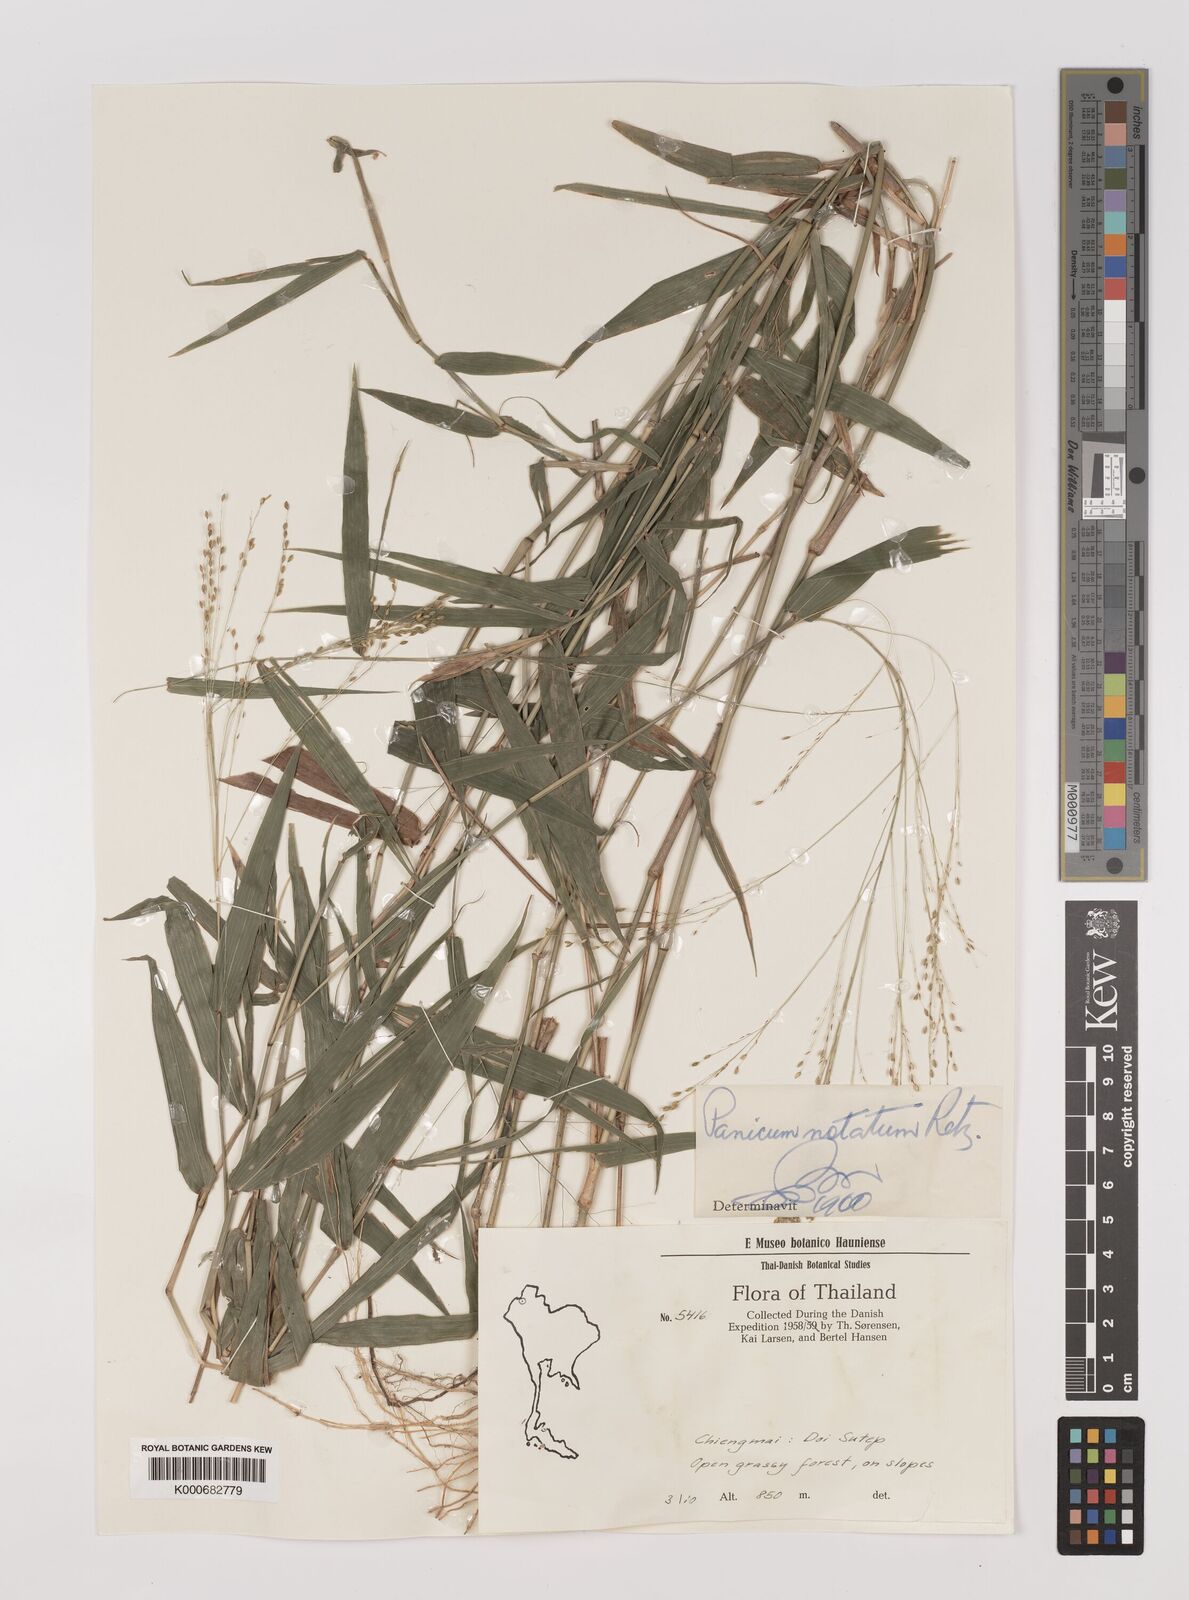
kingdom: Plantae
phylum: Tracheophyta
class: Liliopsida
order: Poales
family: Poaceae
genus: Panicum
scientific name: Panicum notatum
